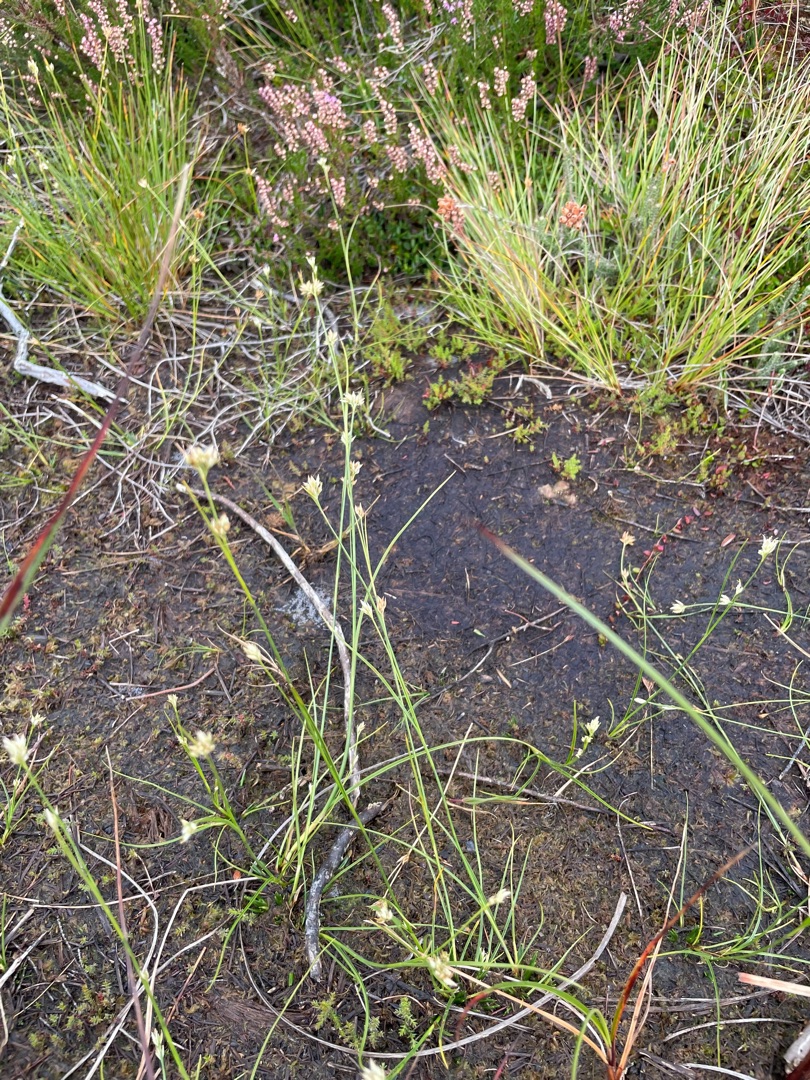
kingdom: Plantae
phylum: Tracheophyta
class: Liliopsida
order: Poales
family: Cyperaceae
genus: Rhynchospora
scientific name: Rhynchospora alba
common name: Hvid næbfrø
